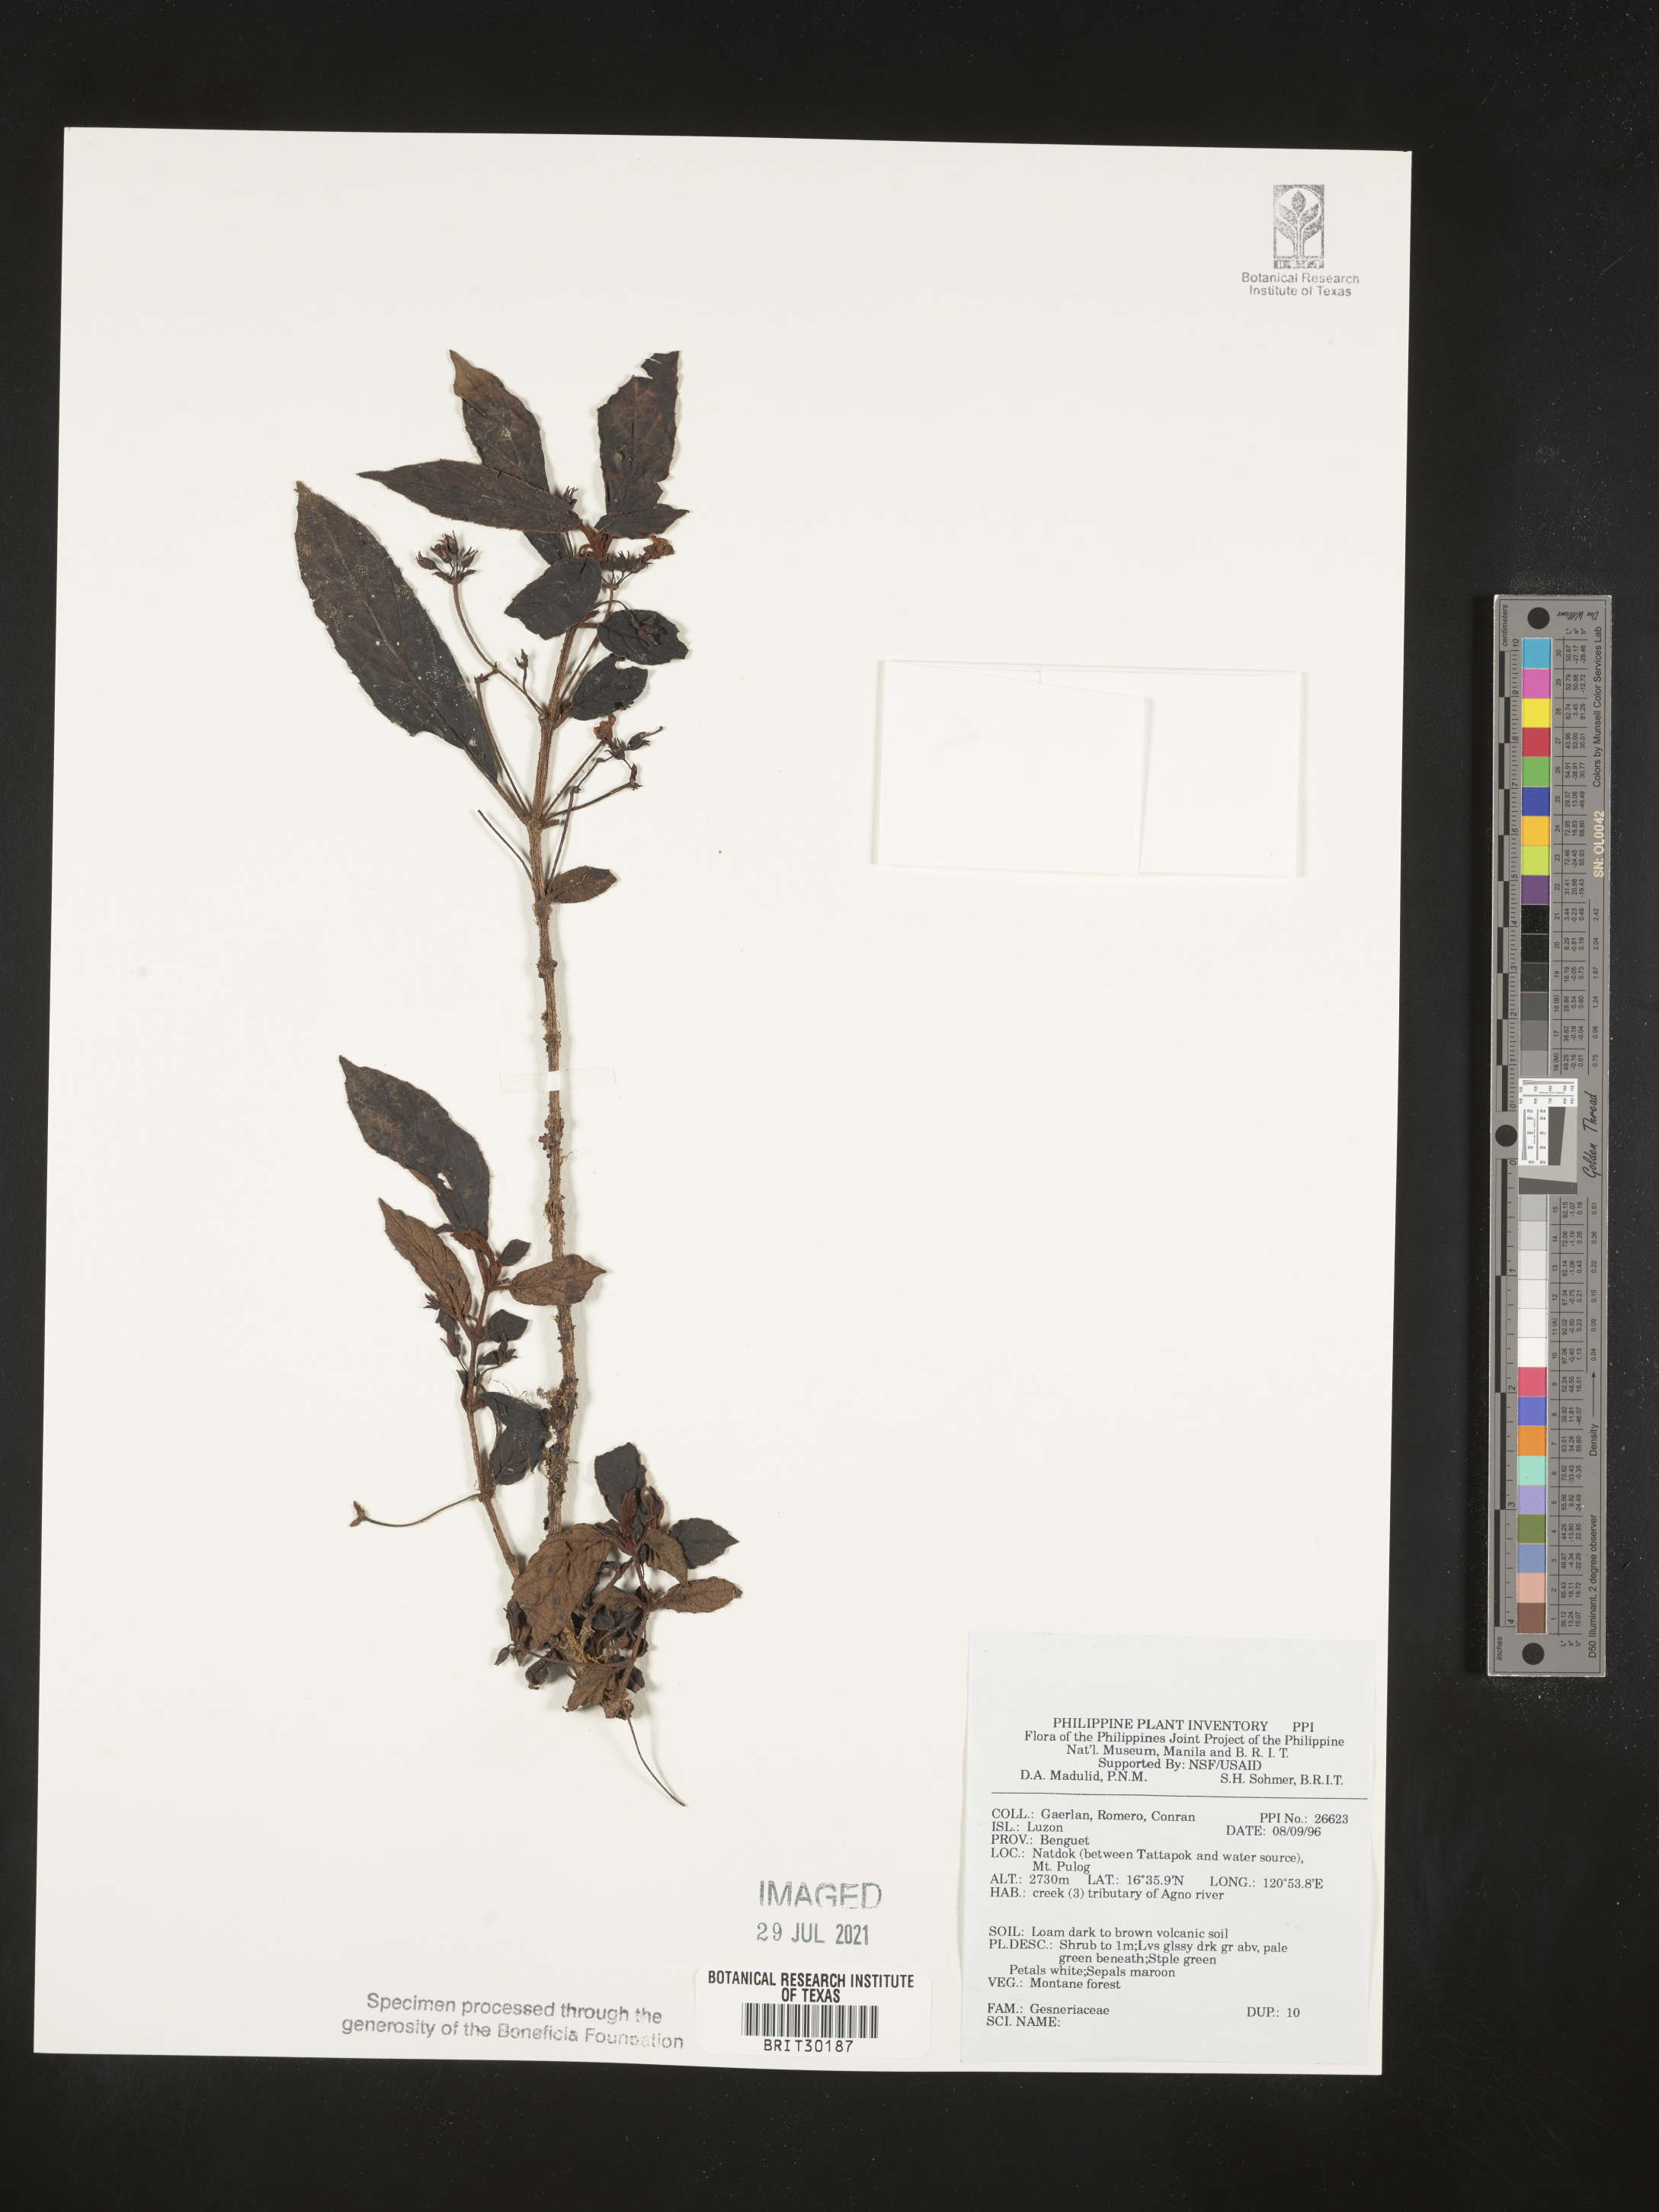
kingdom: Plantae
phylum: Tracheophyta
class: Magnoliopsida
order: Lamiales
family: Gesneriaceae
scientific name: Gesneriaceae
